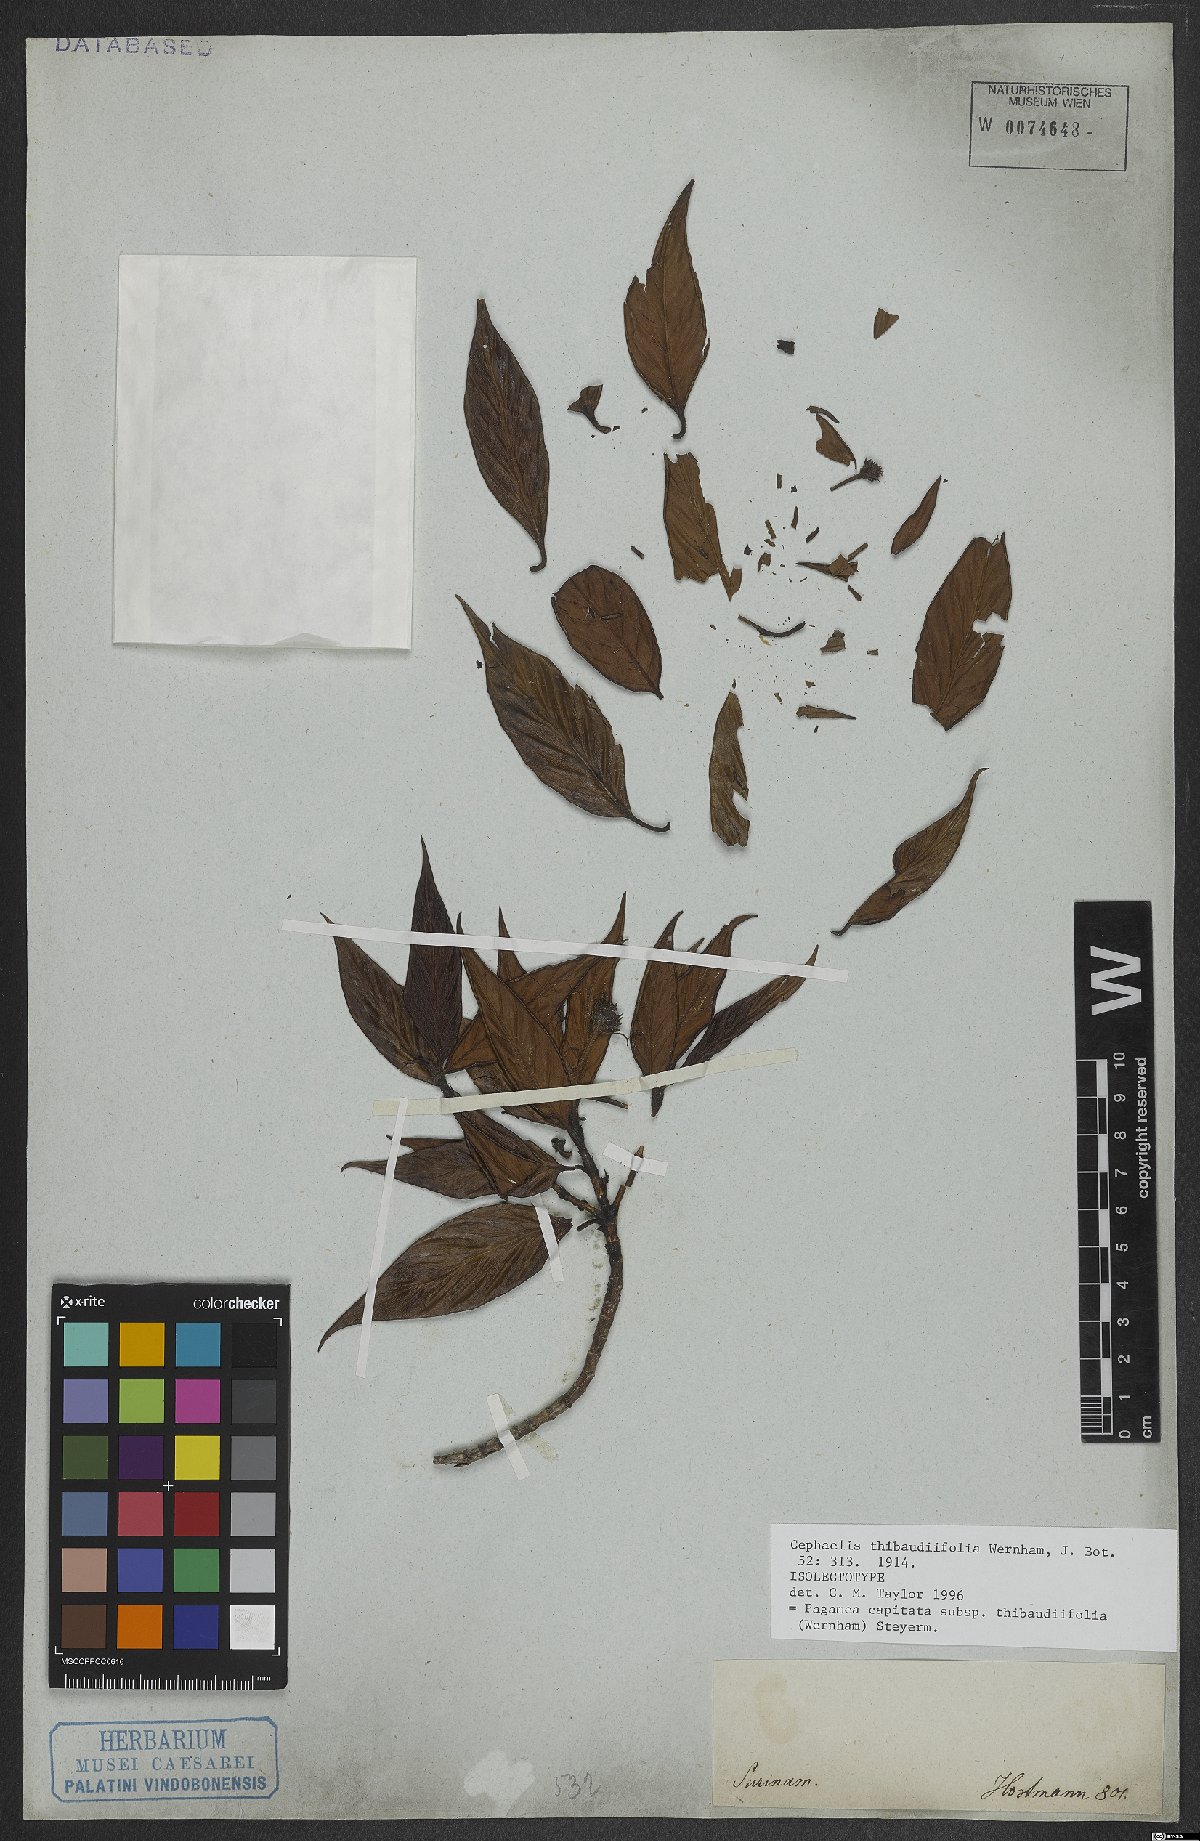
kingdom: Plantae
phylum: Tracheophyta
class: Magnoliopsida
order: Gentianales
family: Rubiaceae
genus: Pagamea
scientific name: Pagamea capitata
